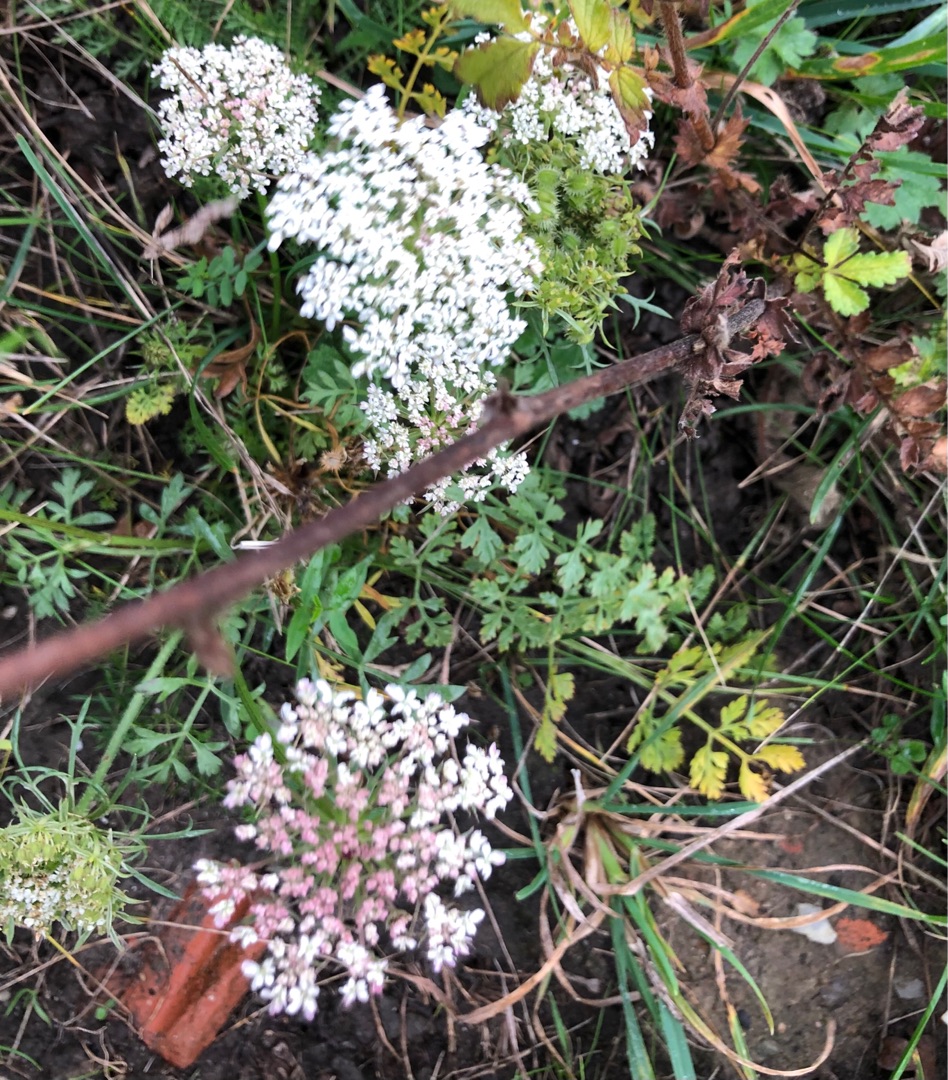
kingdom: Plantae
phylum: Tracheophyta
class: Magnoliopsida
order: Apiales
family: Apiaceae
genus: Daucus
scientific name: Daucus carota
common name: Gulerod
